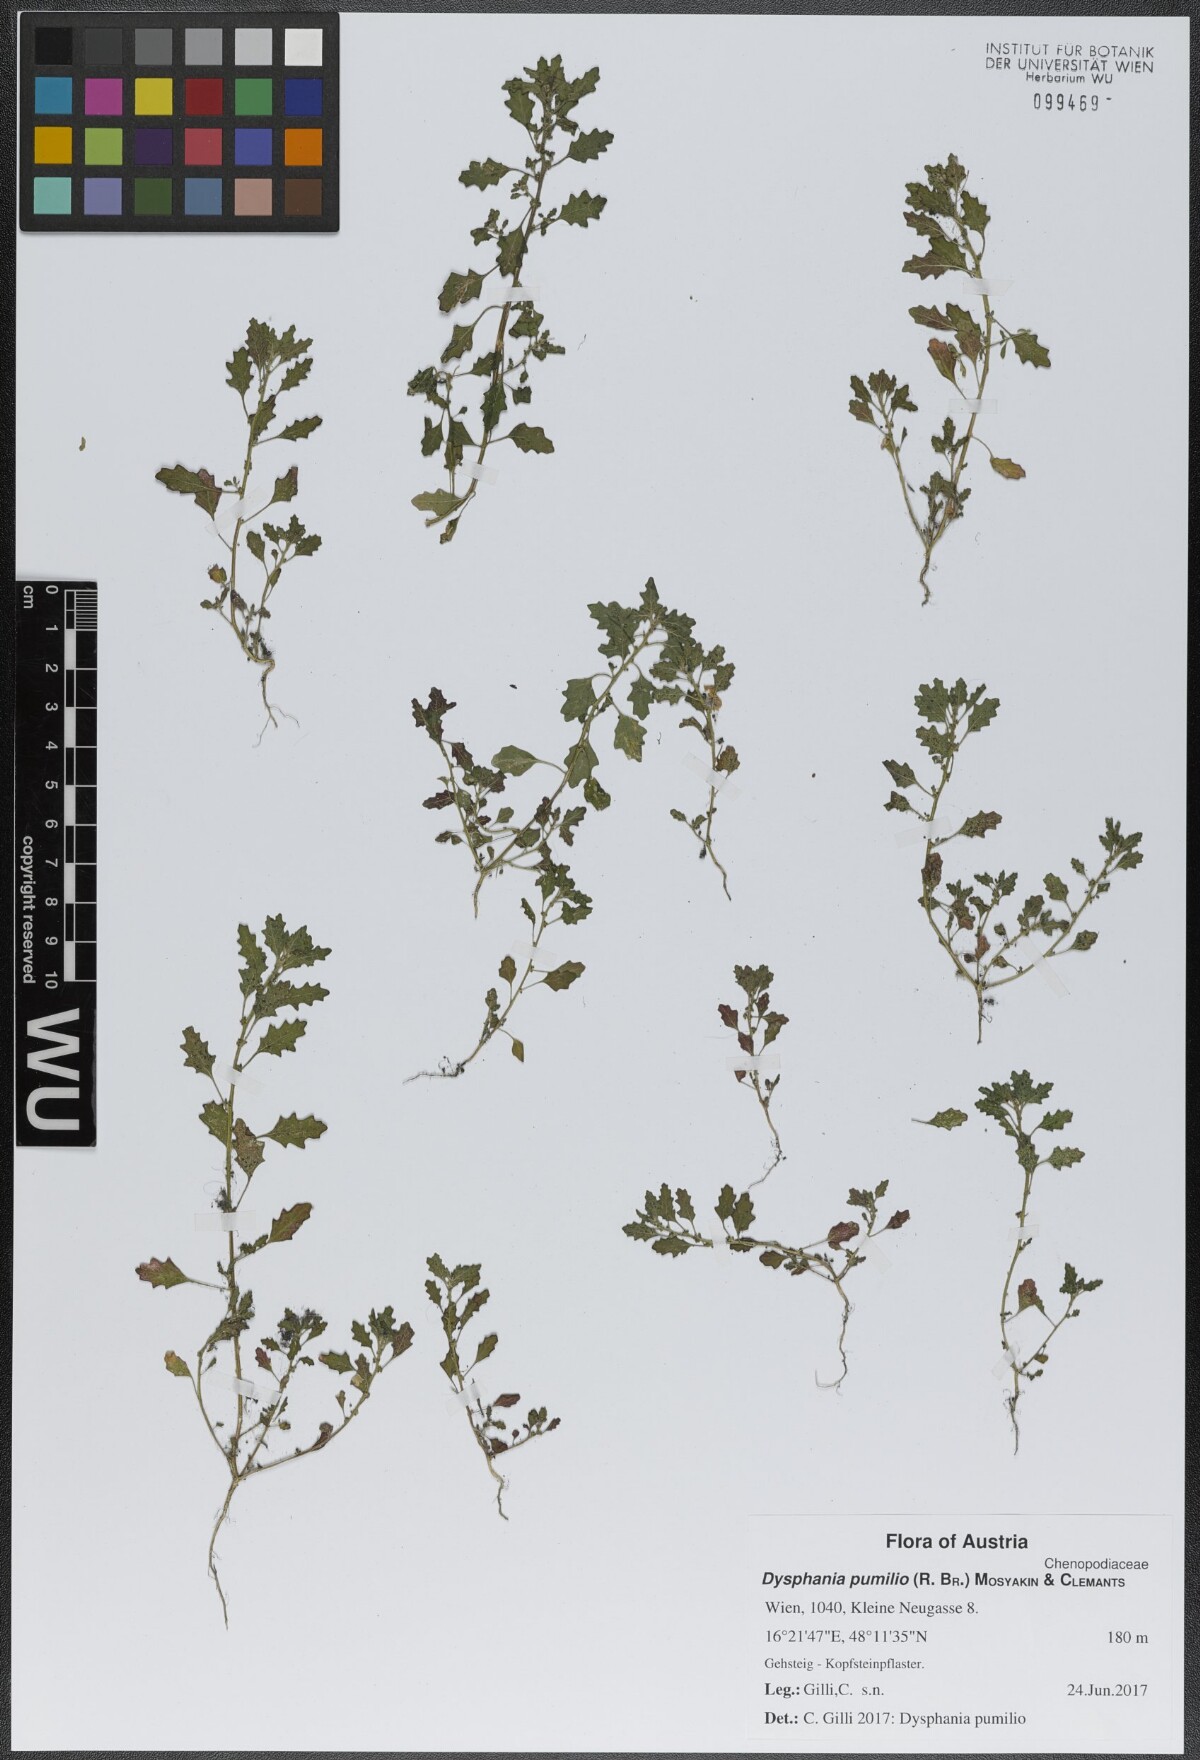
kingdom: Plantae
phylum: Tracheophyta
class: Magnoliopsida
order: Caryophyllales
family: Amaranthaceae
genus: Dysphania
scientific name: Dysphania pumilio
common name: Clammy goosefoot
